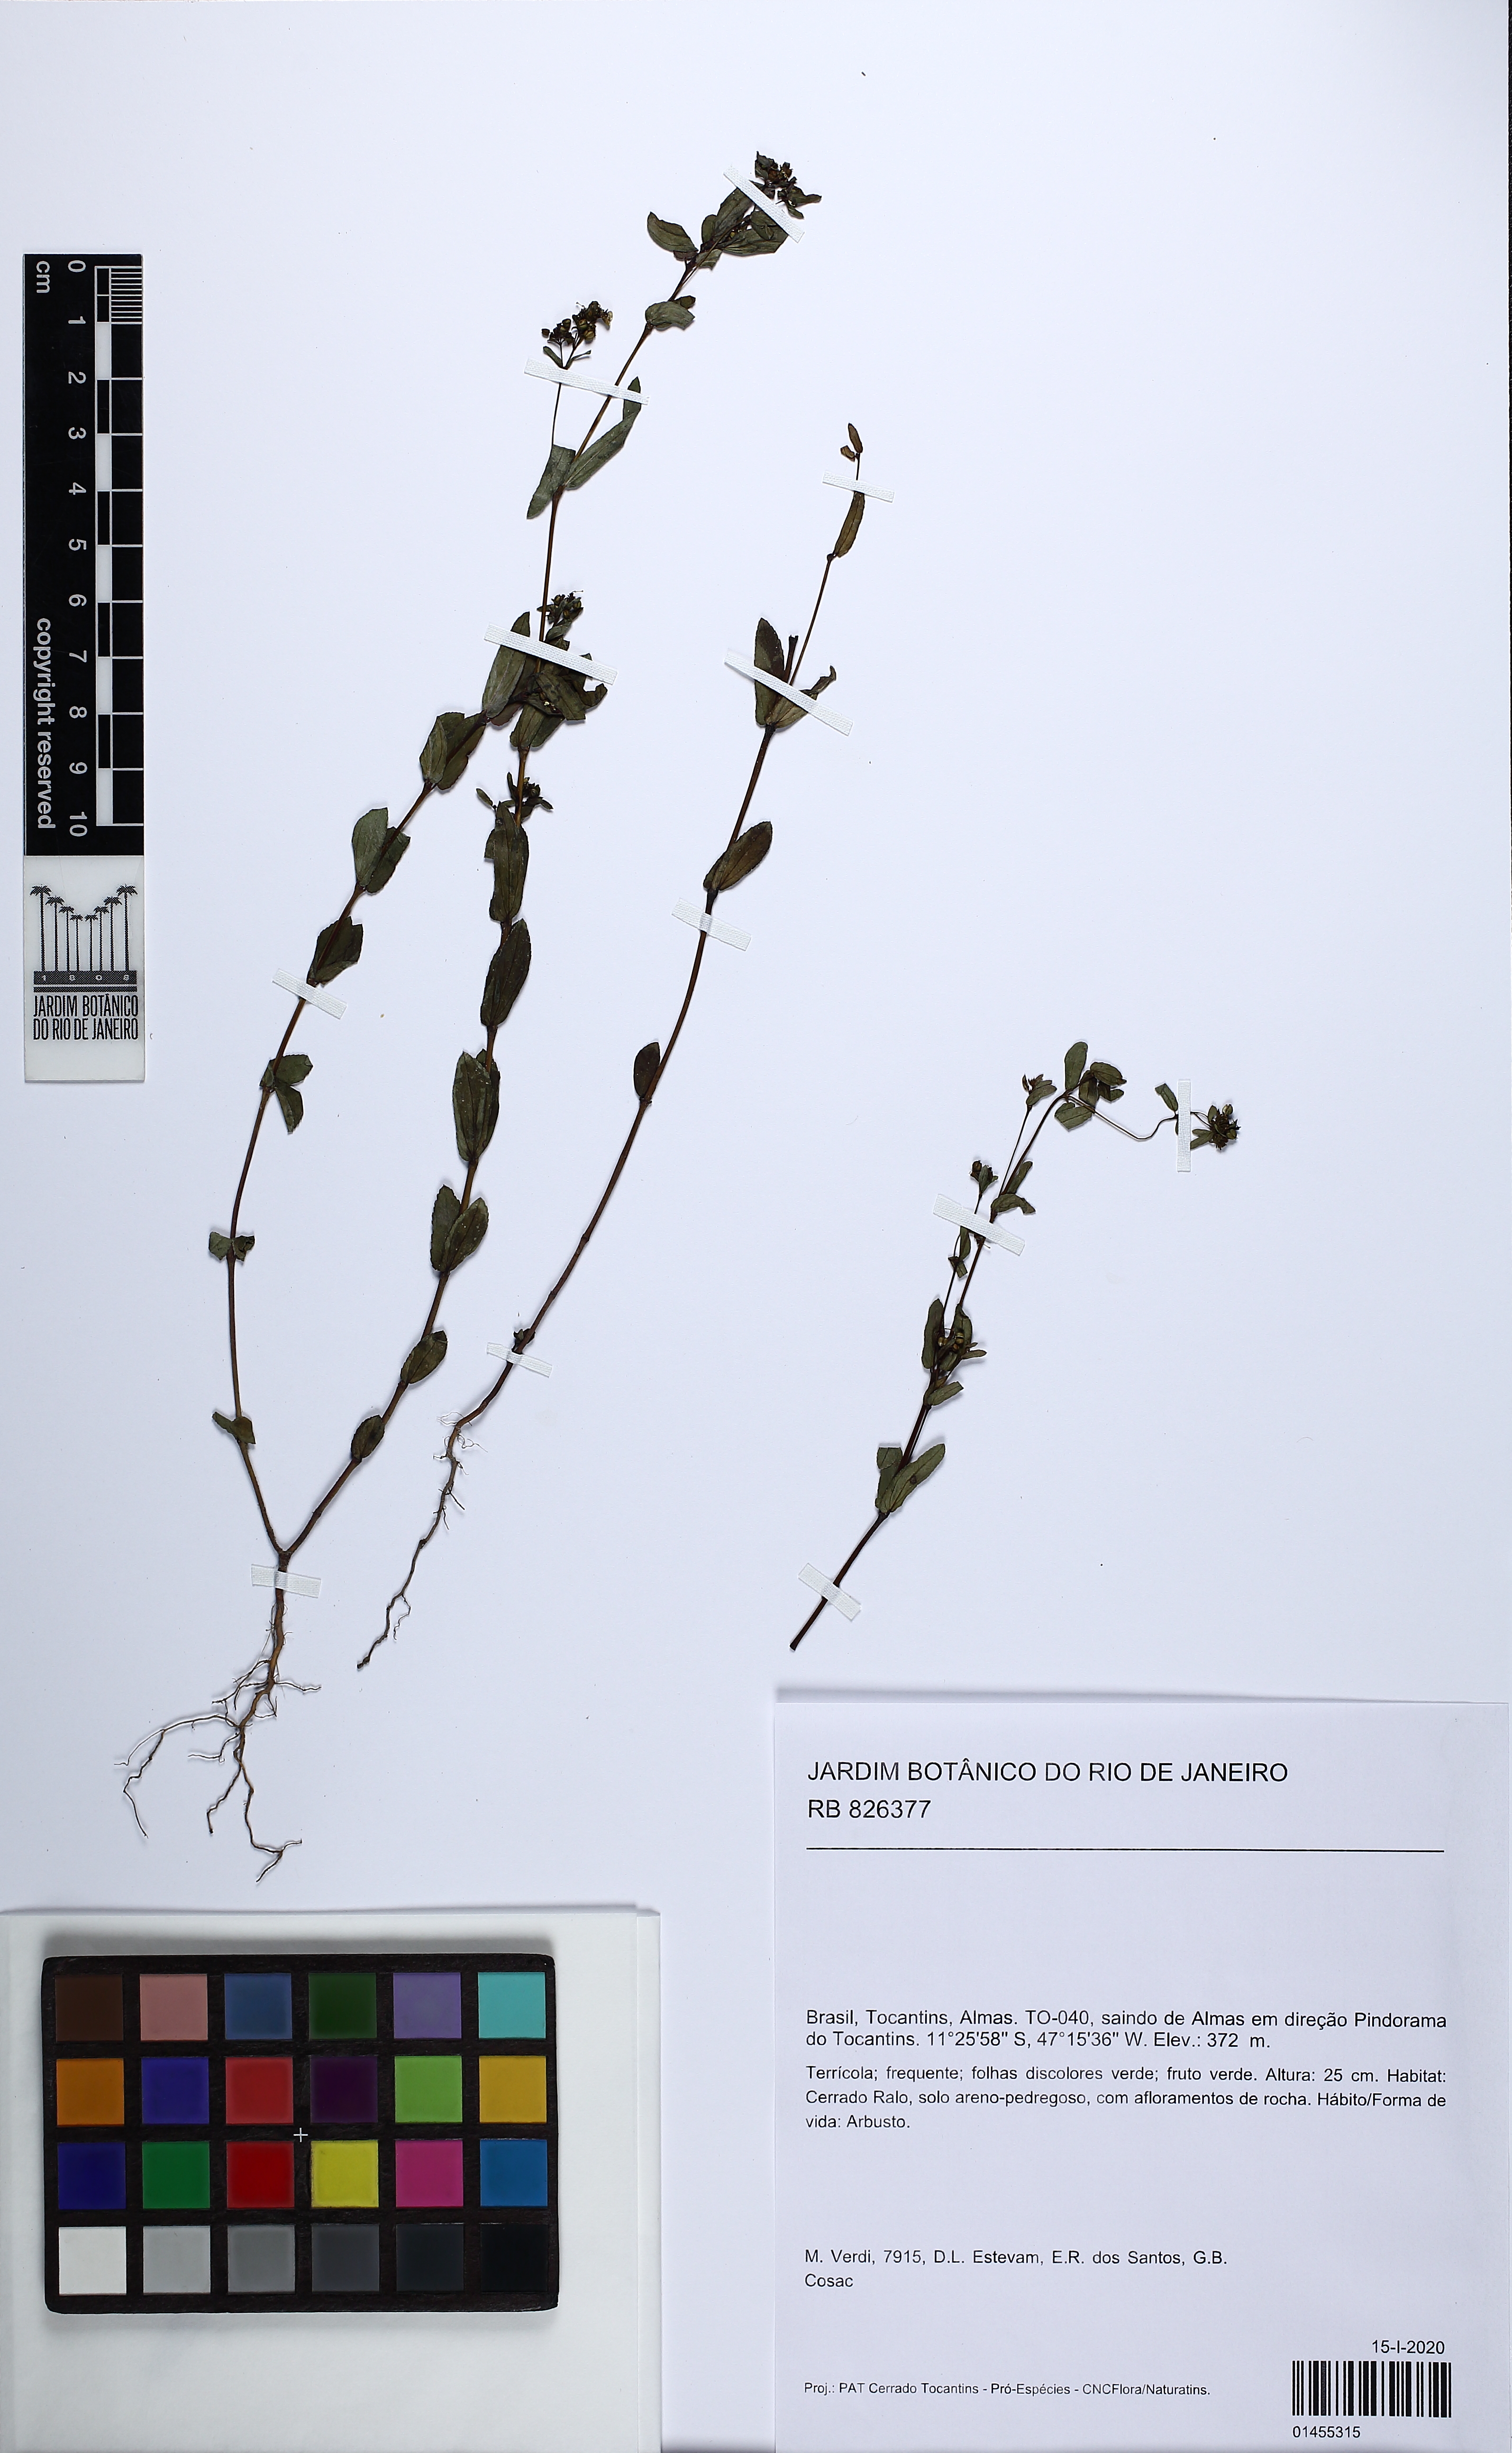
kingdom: Plantae
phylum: Tracheophyta
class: Magnoliopsida
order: Gentianales
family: Gentianaceae
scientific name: Gentianaceae
